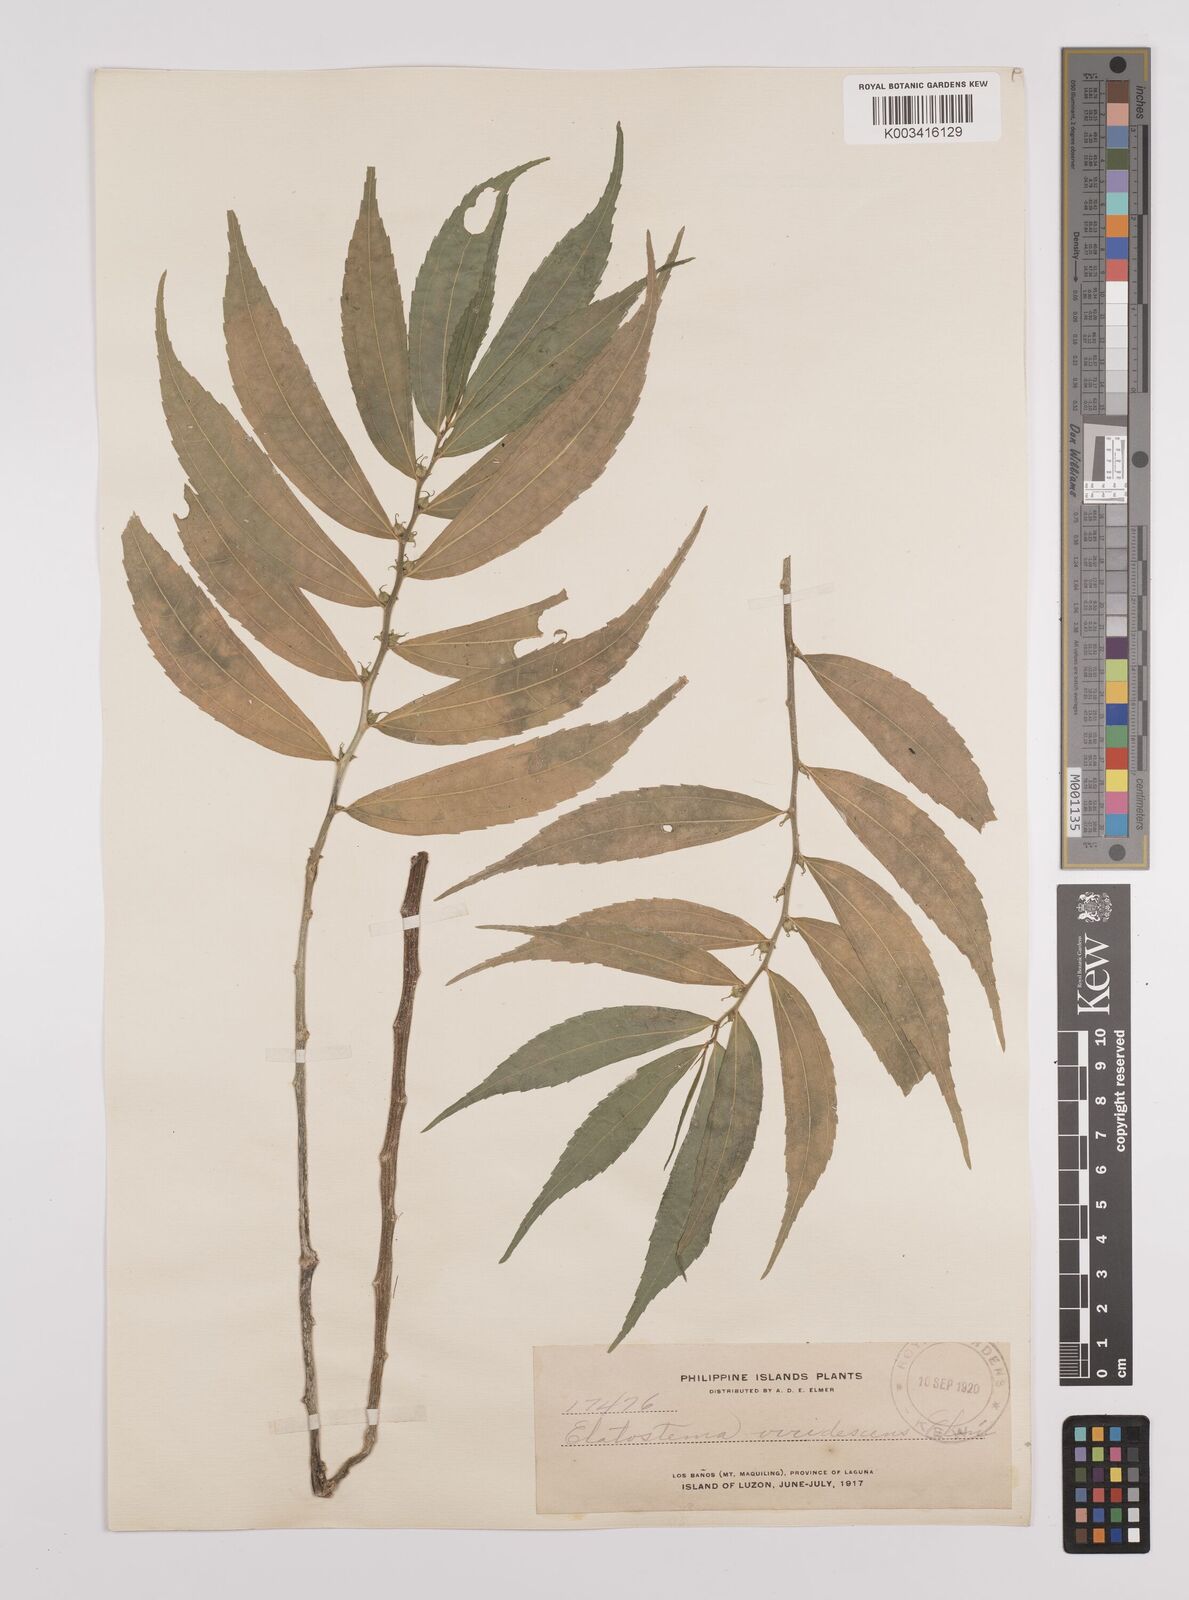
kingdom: Plantae
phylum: Tracheophyta
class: Magnoliopsida
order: Rosales
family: Urticaceae
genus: Elatostema
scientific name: Elatostema viridescens
